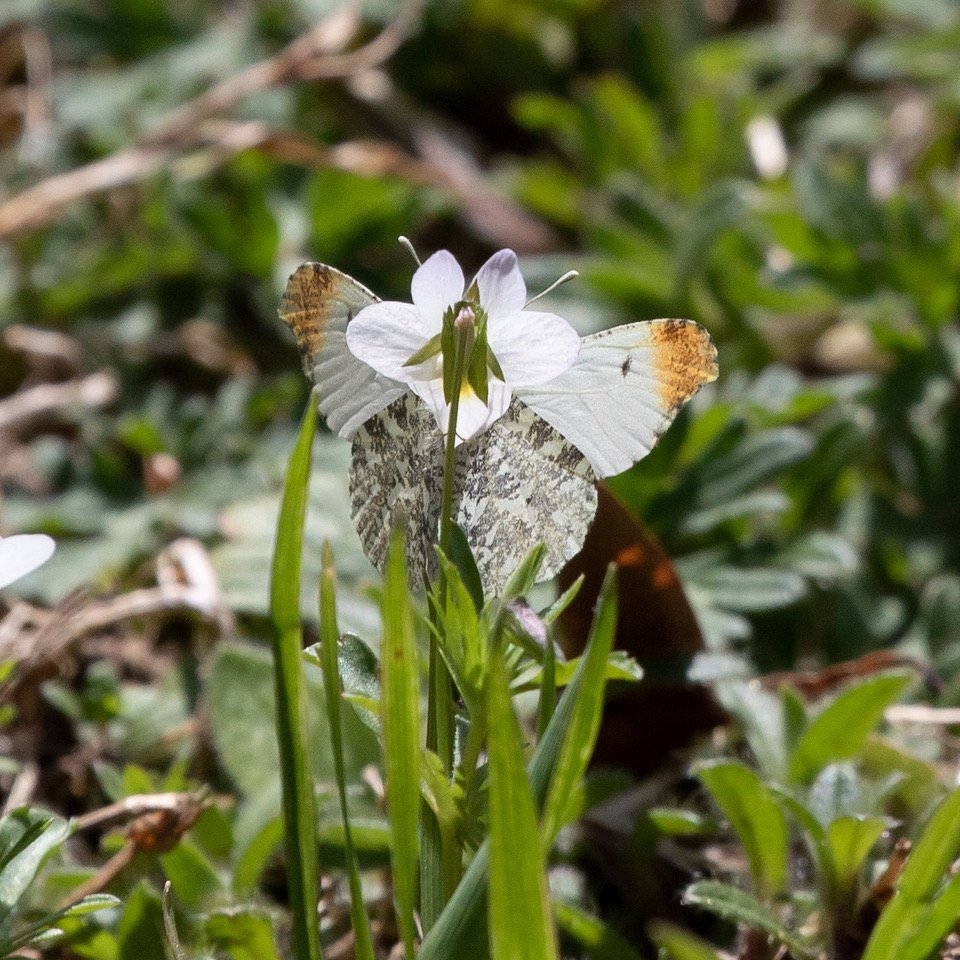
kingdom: Animalia
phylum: Arthropoda
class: Insecta
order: Lepidoptera
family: Pieridae
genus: Anthocharis
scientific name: Anthocharis midea
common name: Falcate Orangetip
